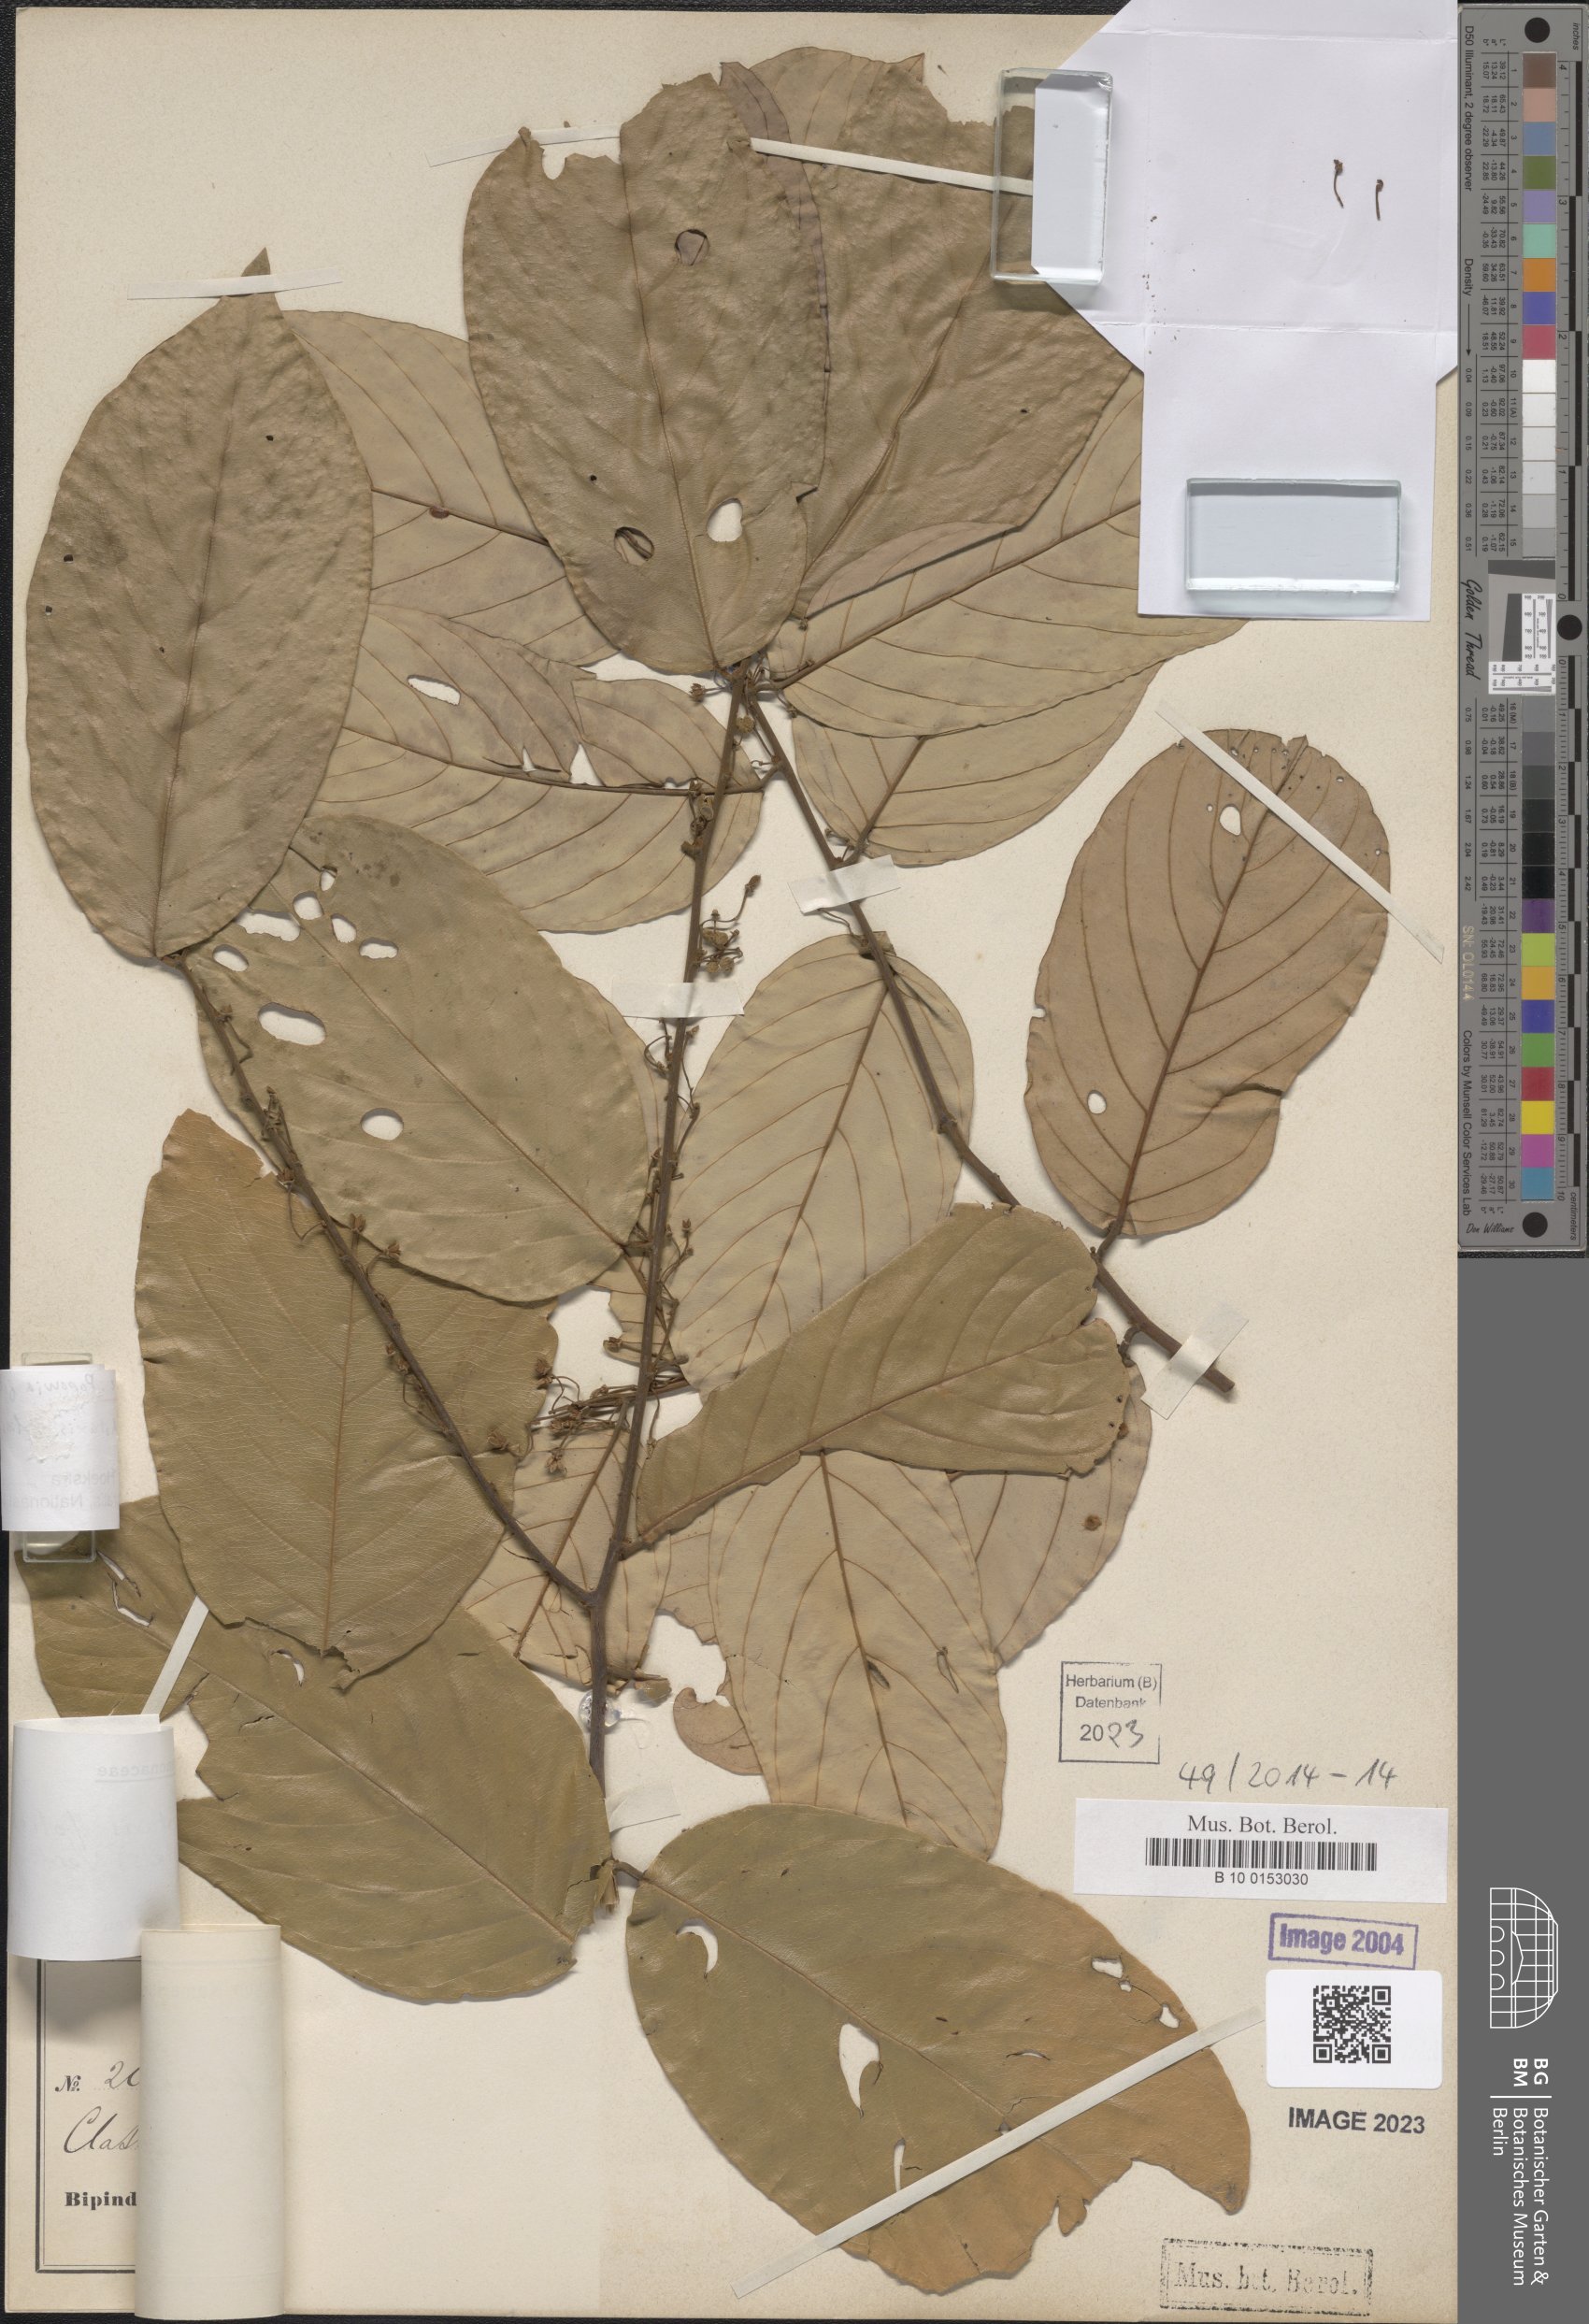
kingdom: Plantae
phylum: Tracheophyta
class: Magnoliopsida
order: Magnoliales
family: Annonaceae
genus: Monanthotaxis
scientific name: Monanthotaxis foliosa
